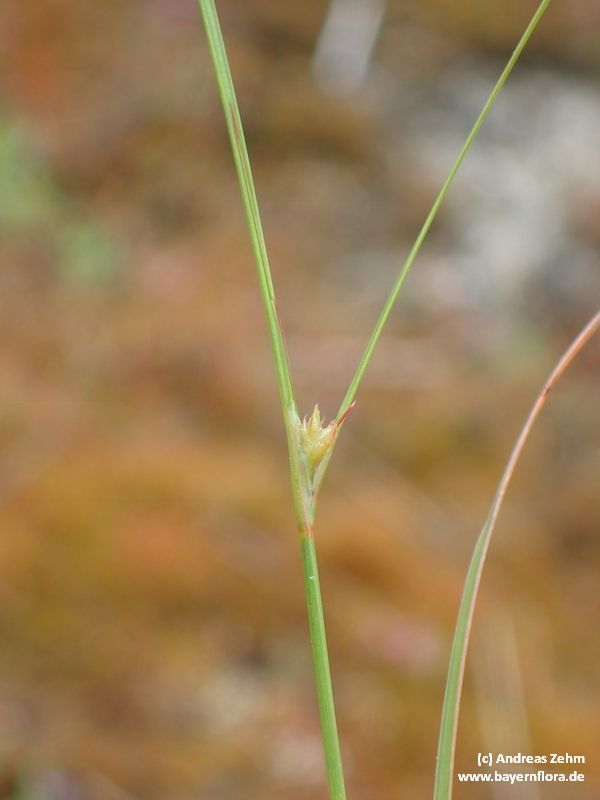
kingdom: Plantae
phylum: Tracheophyta
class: Liliopsida
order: Poales
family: Juncaceae
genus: Juncus
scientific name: Juncus tenuis
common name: Slender rush
